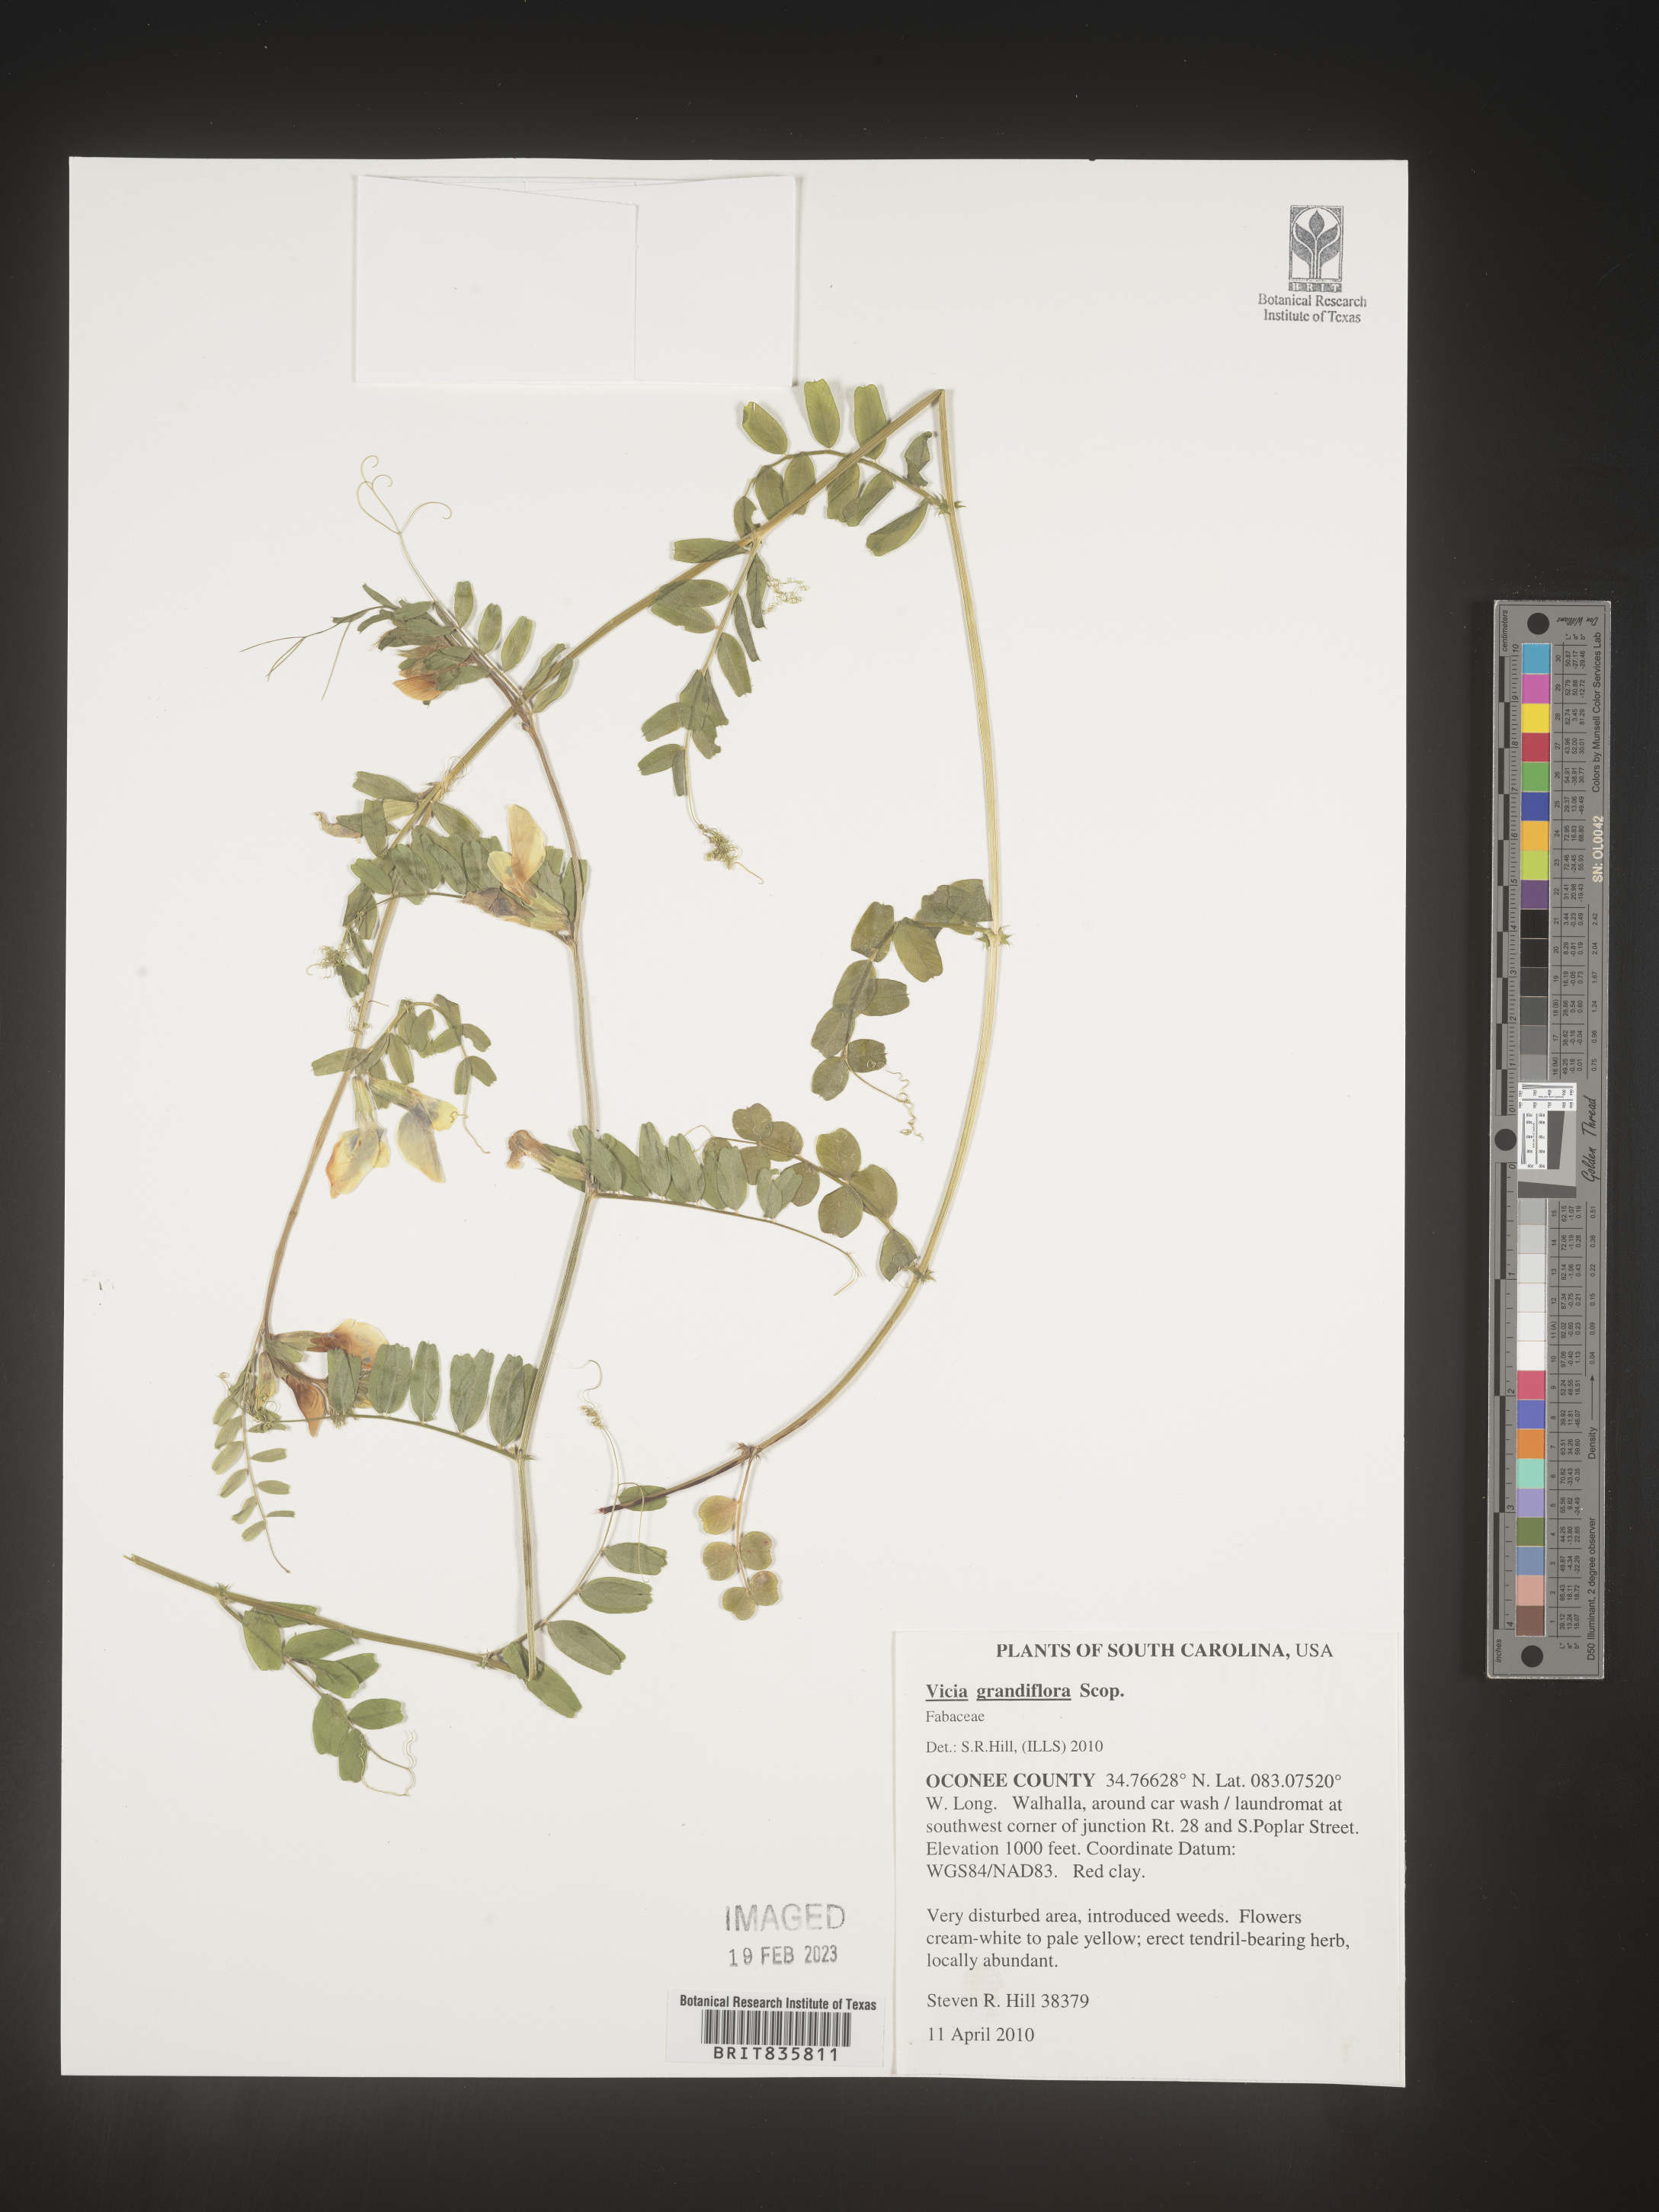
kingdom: Plantae
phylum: Tracheophyta
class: Magnoliopsida
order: Fabales
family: Fabaceae
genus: Vicia
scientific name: Vicia grandiflora
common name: Large yellow vetch
